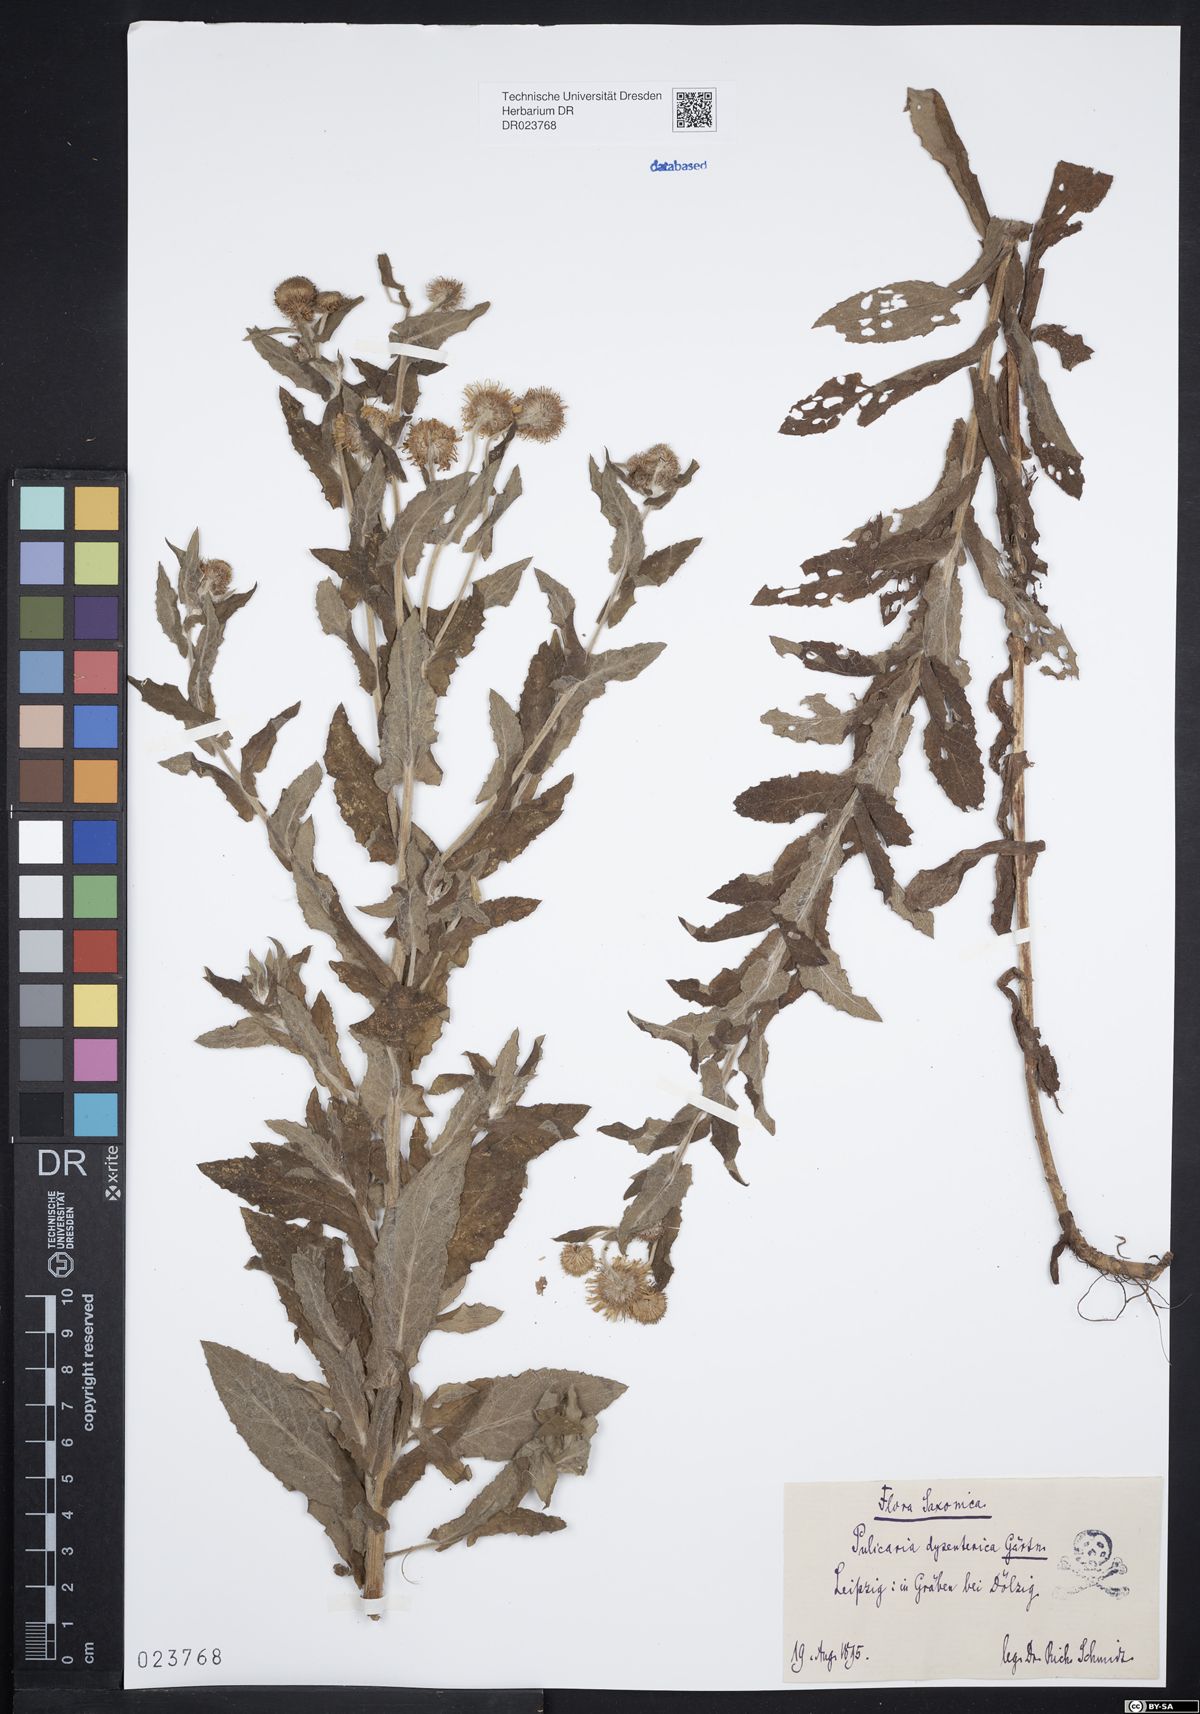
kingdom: Plantae
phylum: Tracheophyta
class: Magnoliopsida
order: Asterales
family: Asteraceae
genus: Pulicaria
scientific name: Pulicaria dysenterica
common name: Common fleabane
